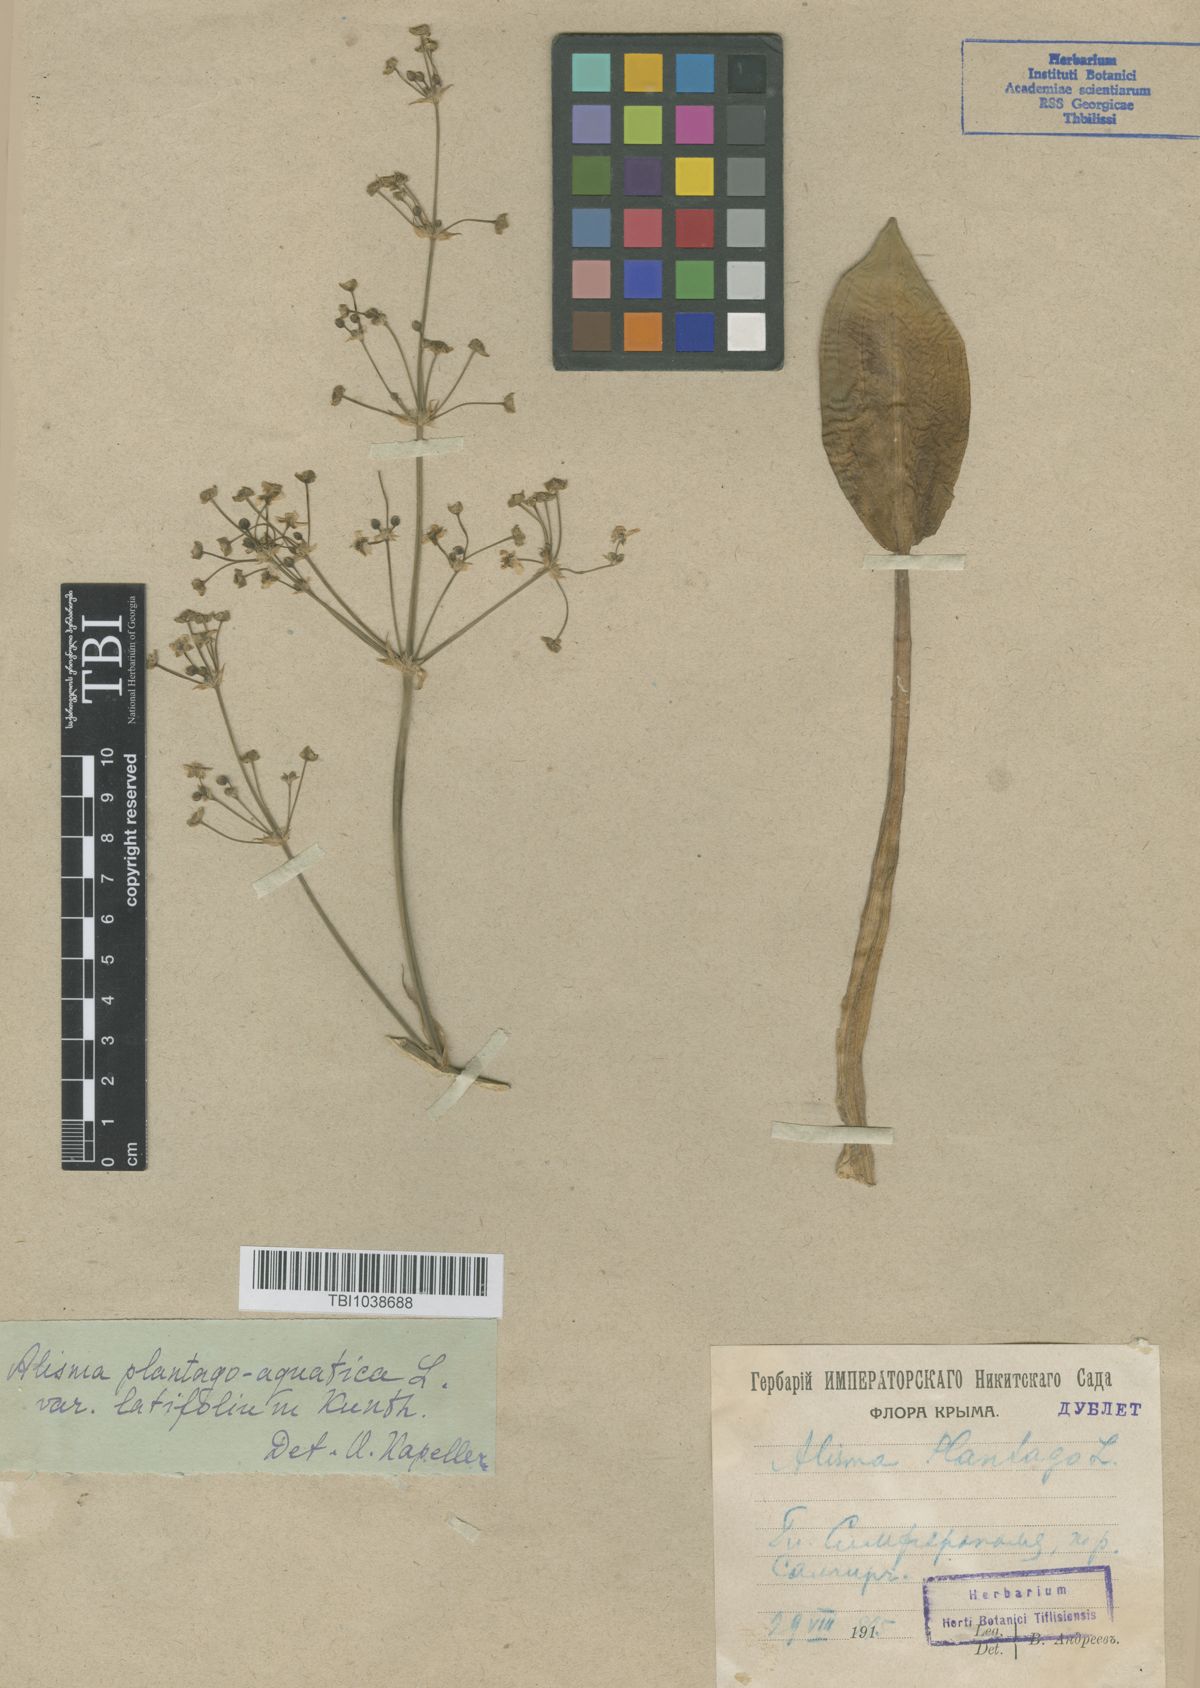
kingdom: Plantae
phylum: Tracheophyta
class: Liliopsida
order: Alismatales
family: Alismataceae
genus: Alisma
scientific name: Alisma plantago-aquatica
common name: Water-plantain
